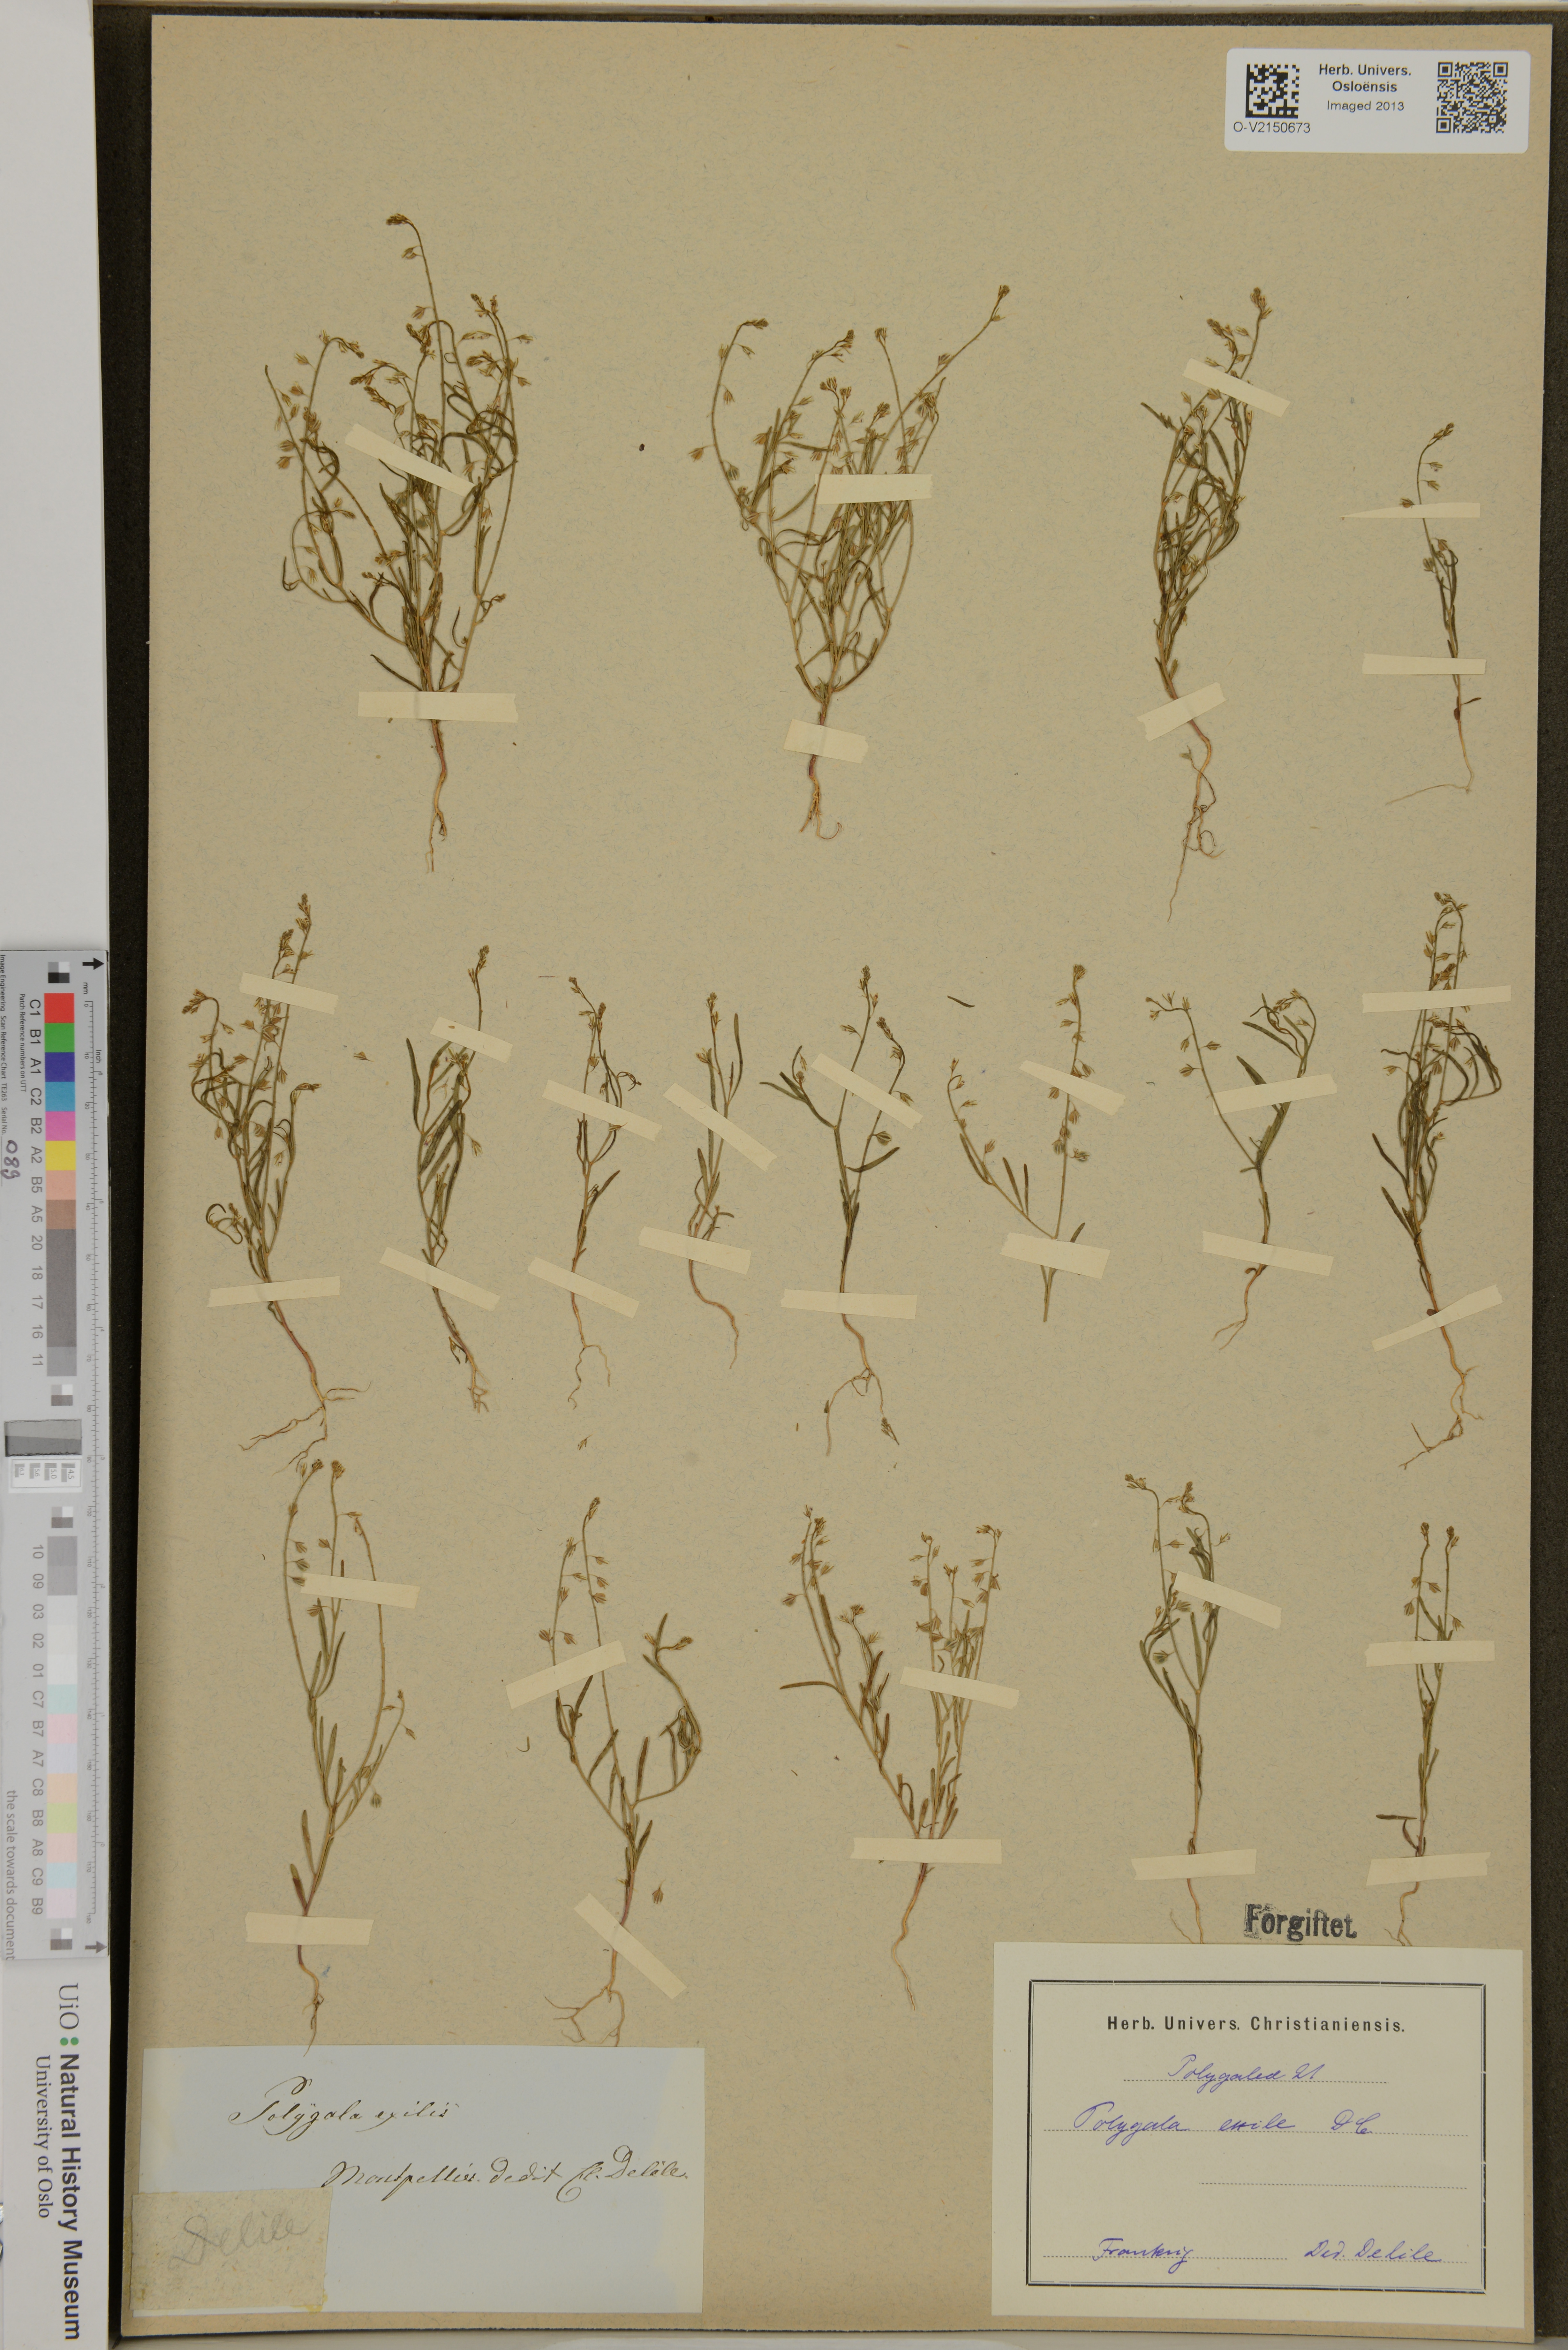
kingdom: Plantae
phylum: Tracheophyta
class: Magnoliopsida
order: Fabales
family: Polygalaceae
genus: Polygala
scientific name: Polygala exilis
